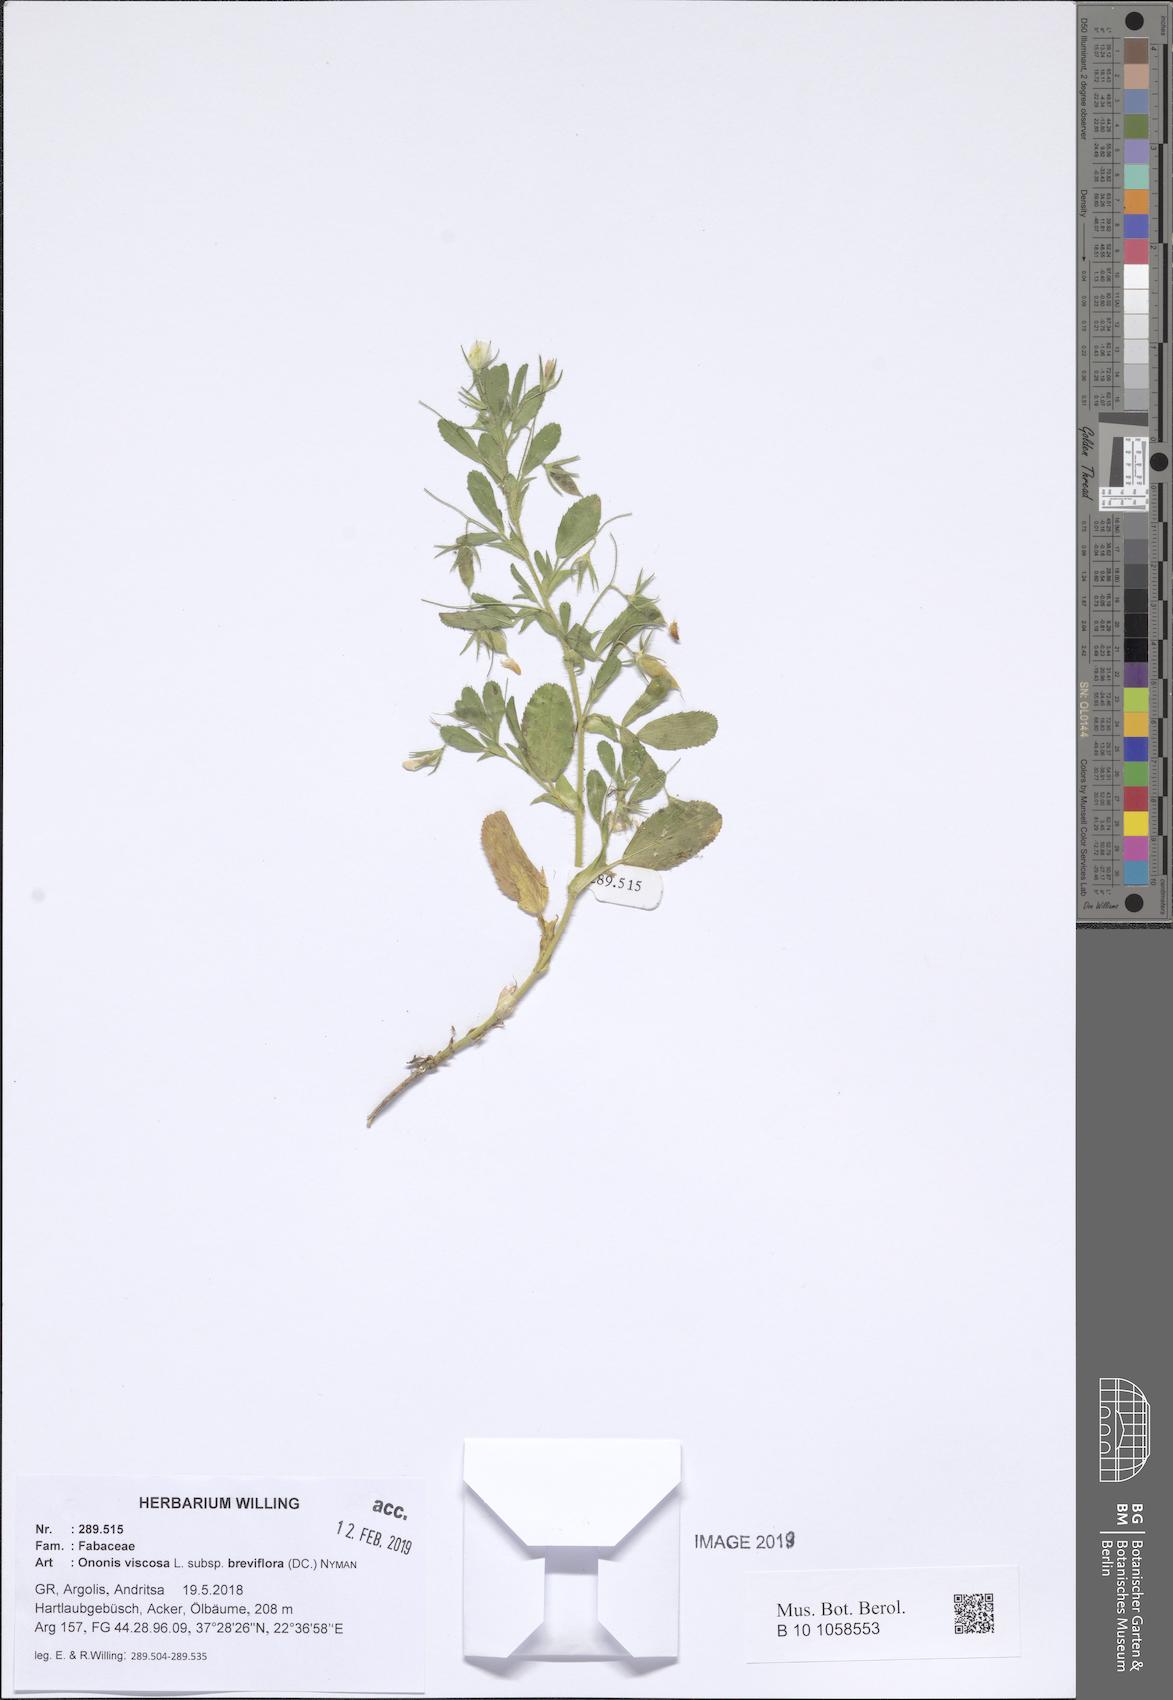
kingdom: Plantae
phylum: Tracheophyta
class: Magnoliopsida
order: Fabales
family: Fabaceae
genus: Ononis
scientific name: Ononis viscosa
